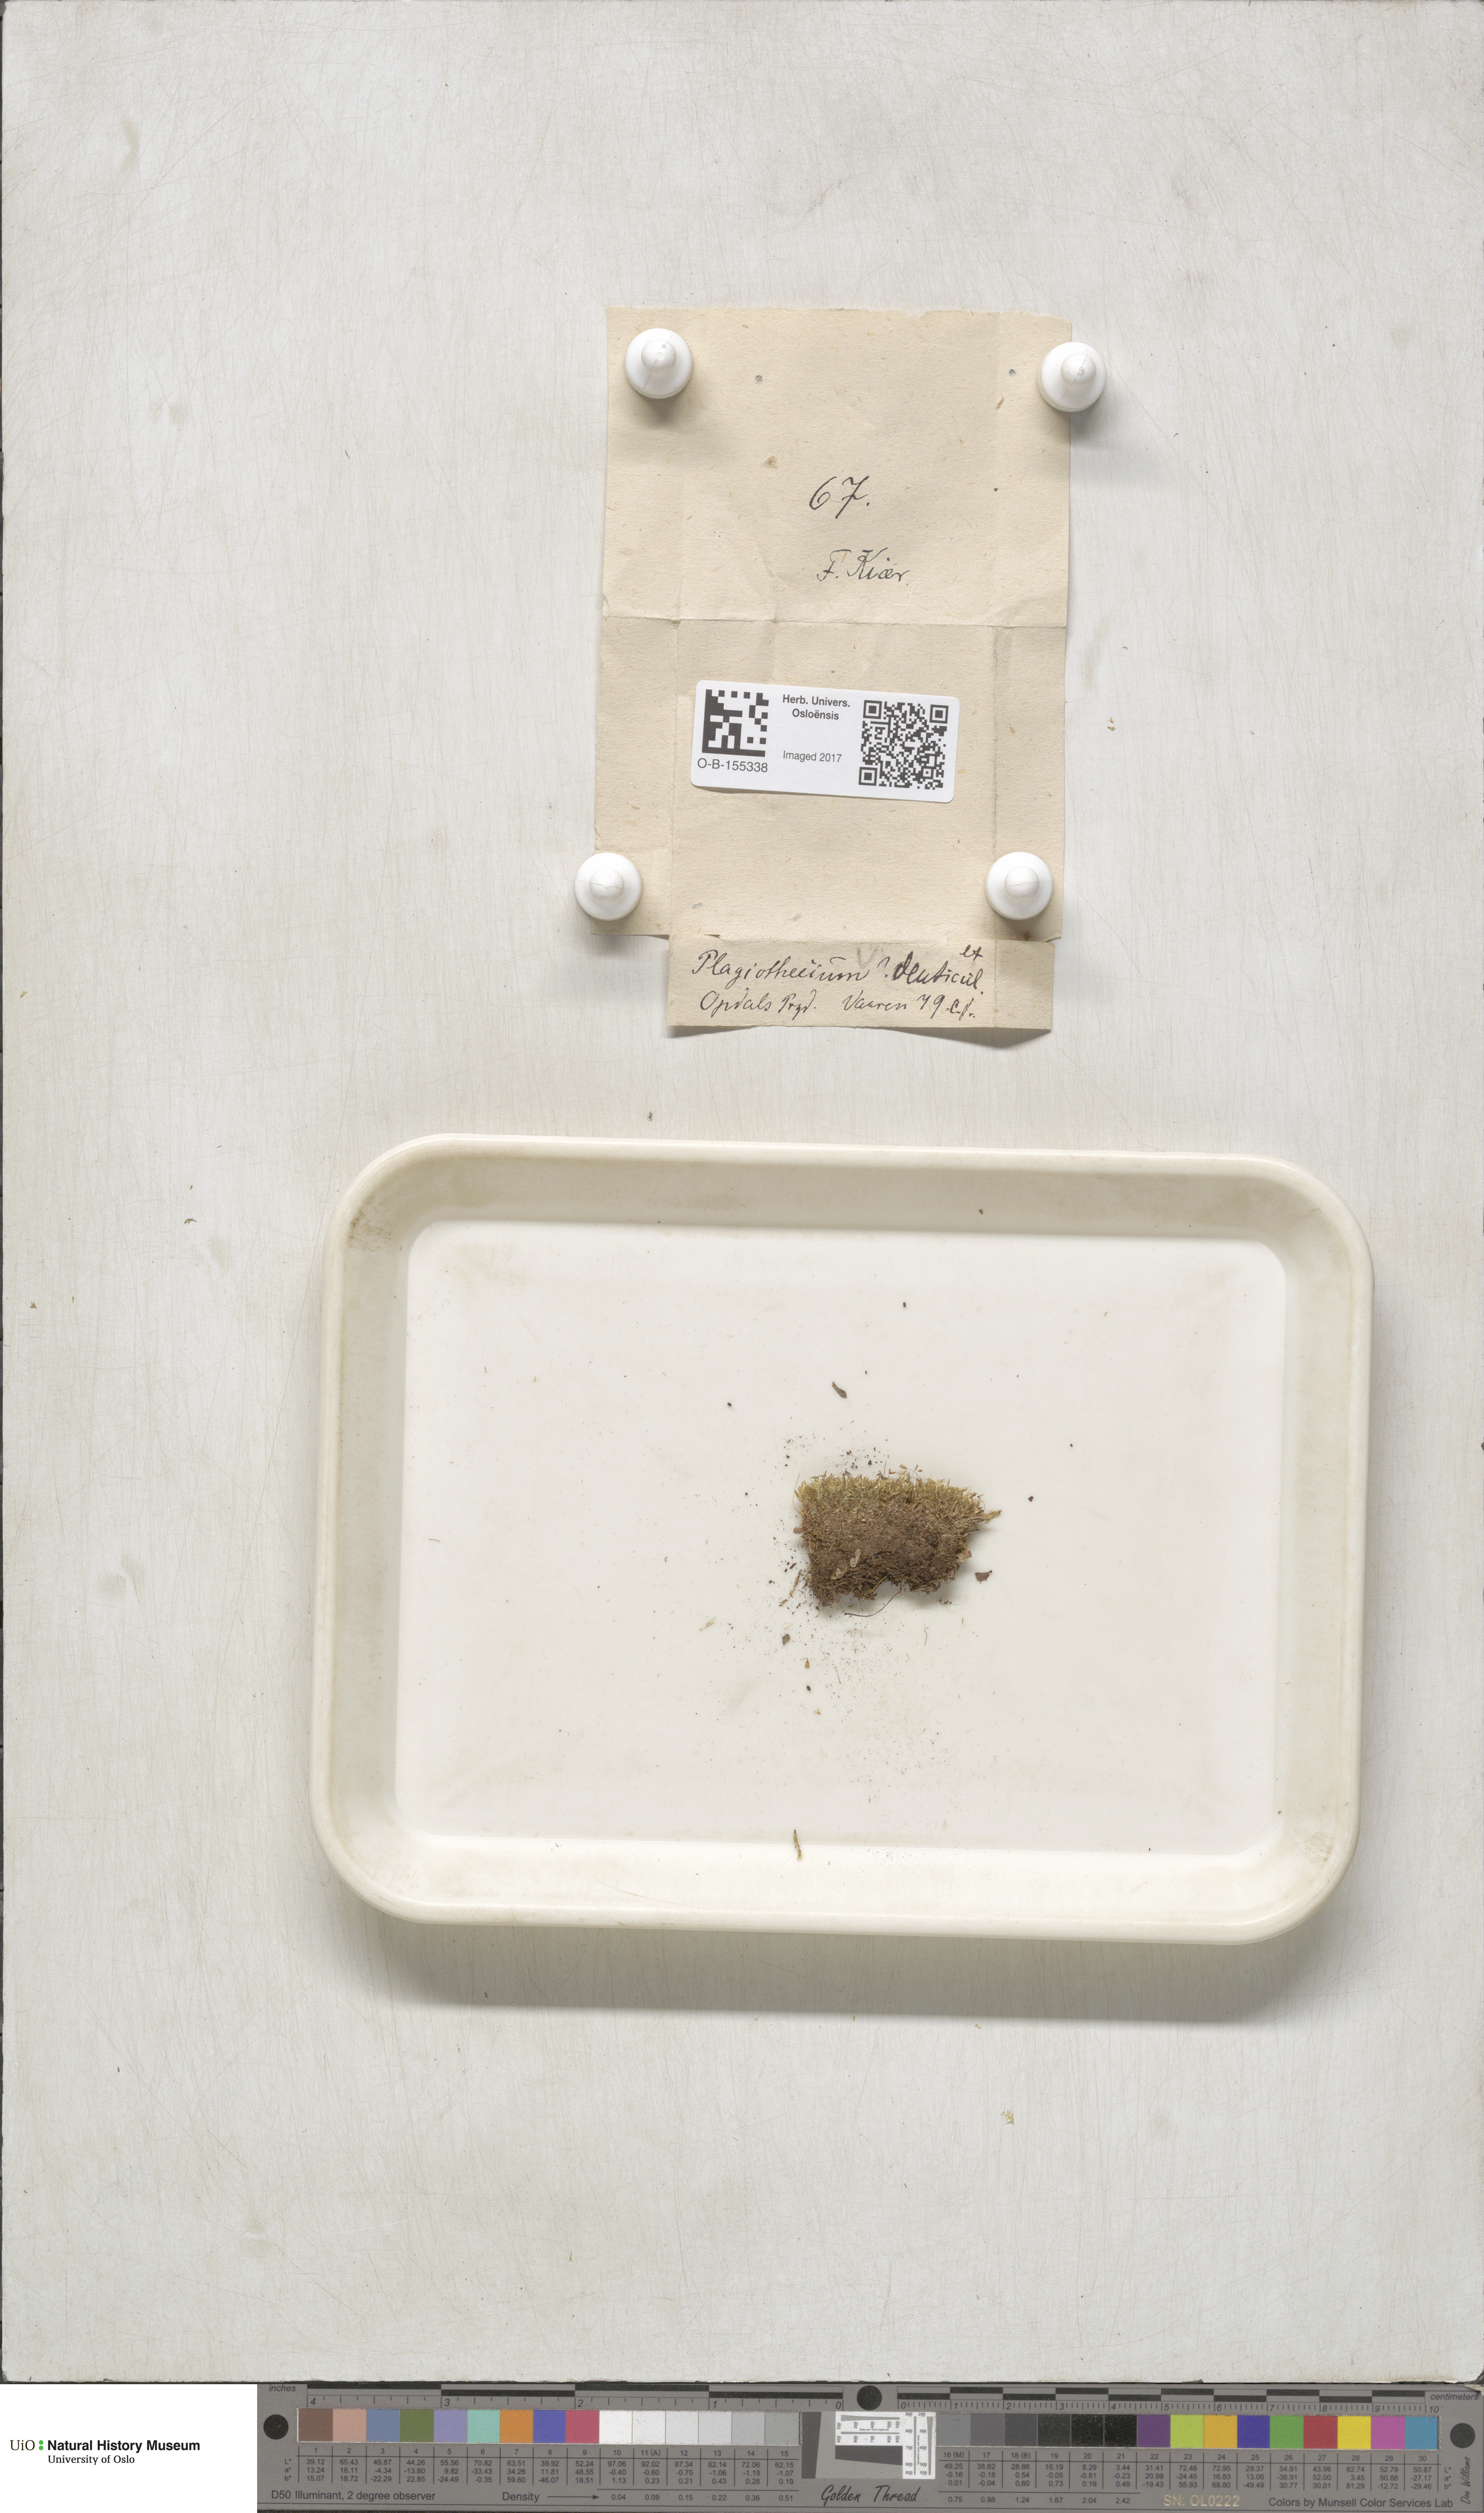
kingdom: Plantae
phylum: Bryophyta
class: Bryopsida
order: Hypnales
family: Plagiotheciaceae
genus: Plagiothecium
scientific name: Plagiothecium denticulatum
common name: Dented silk moss
